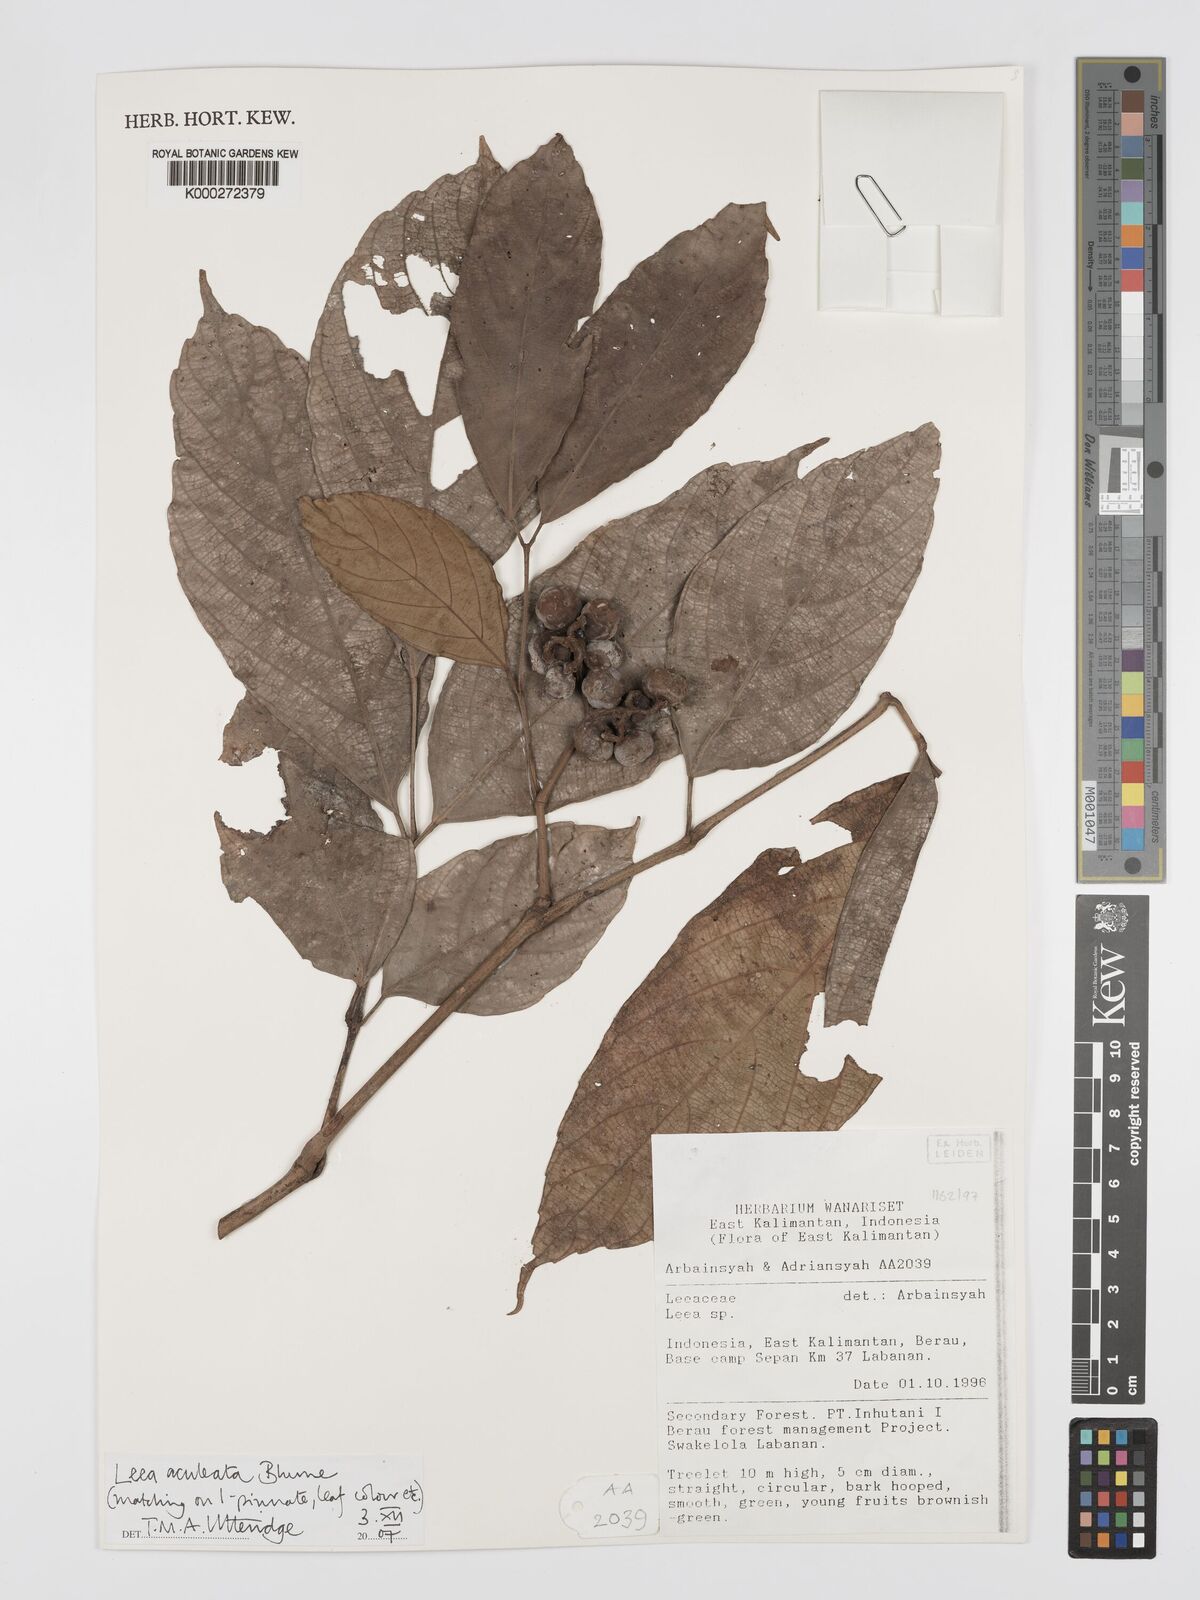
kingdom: Plantae
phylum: Tracheophyta
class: Magnoliopsida
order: Vitales
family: Vitaceae
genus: Leea
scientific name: Leea aculeata
